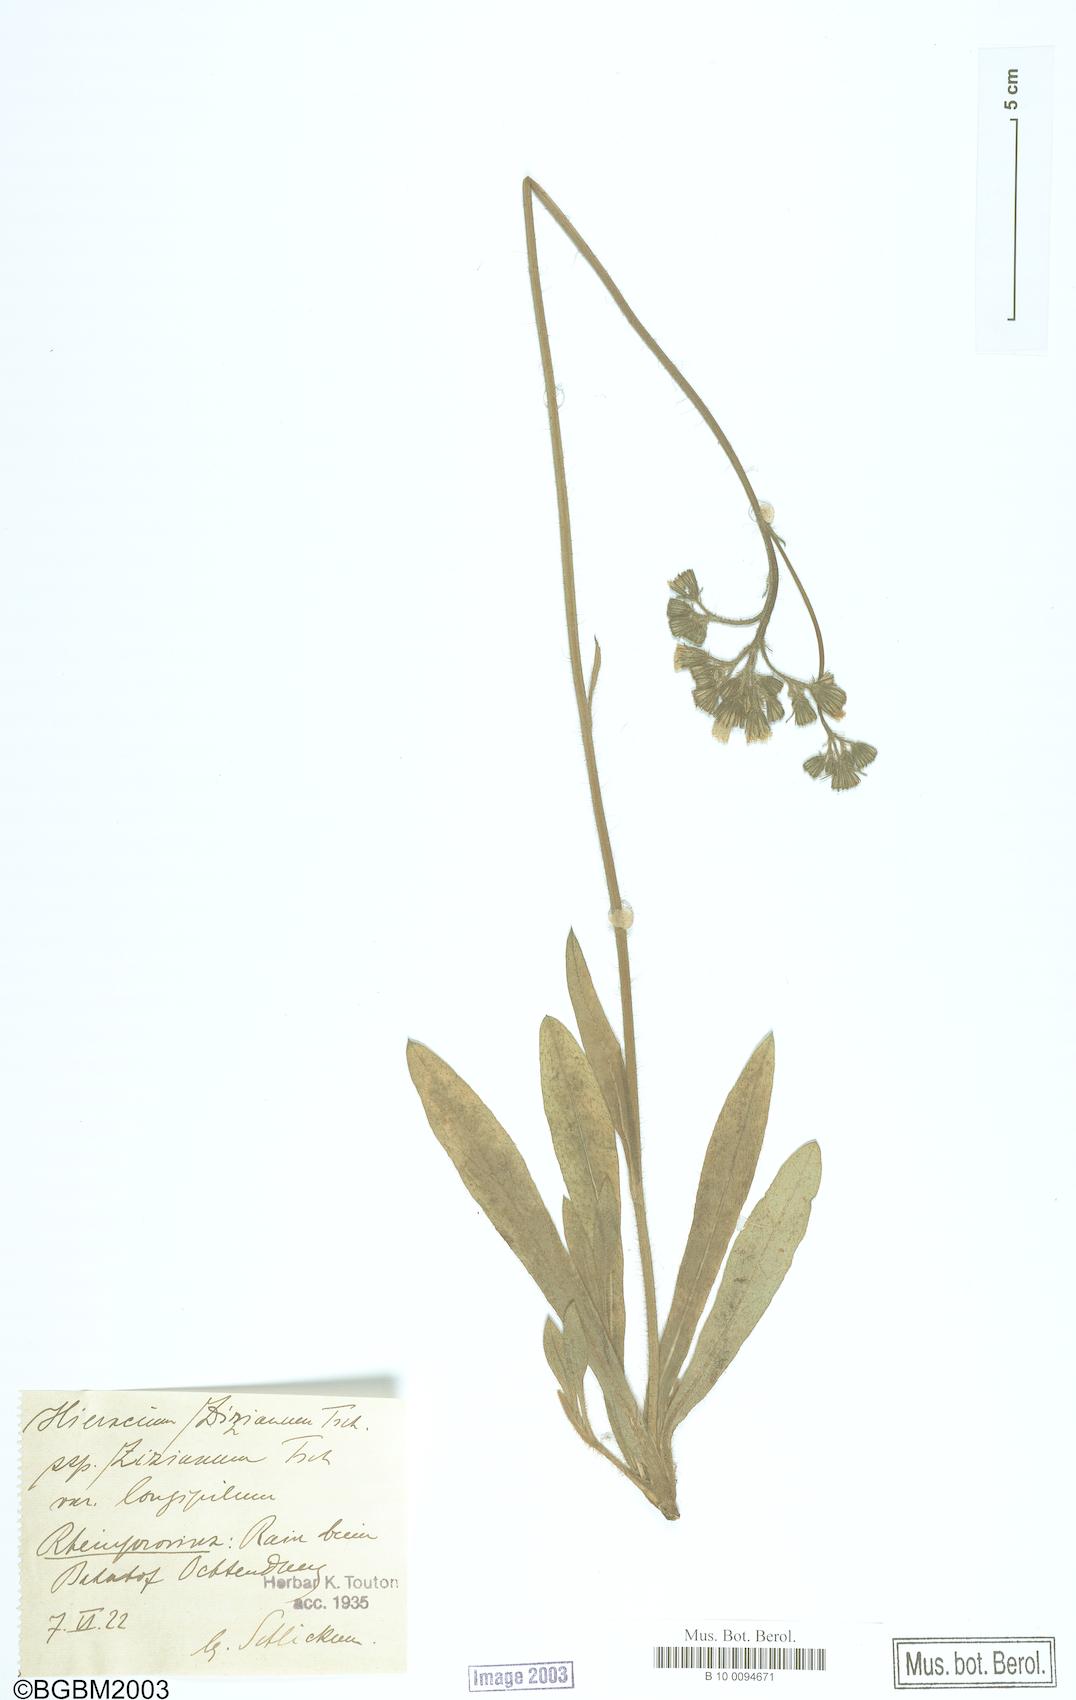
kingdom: Plantae
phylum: Tracheophyta
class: Magnoliopsida
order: Asterales
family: Asteraceae
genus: Pilosella
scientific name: Pilosella ziziana
